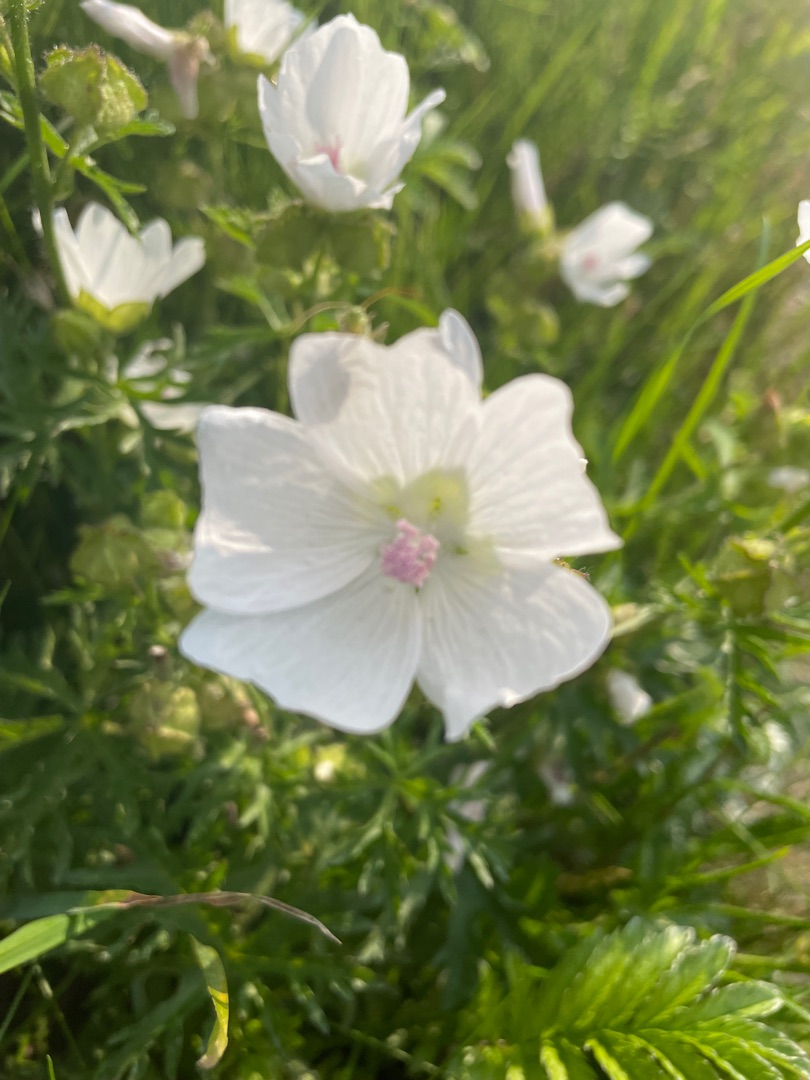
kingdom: Plantae
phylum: Tracheophyta
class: Magnoliopsida
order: Malvales
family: Malvaceae
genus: Malva
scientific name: Malva
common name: Katostslægten
